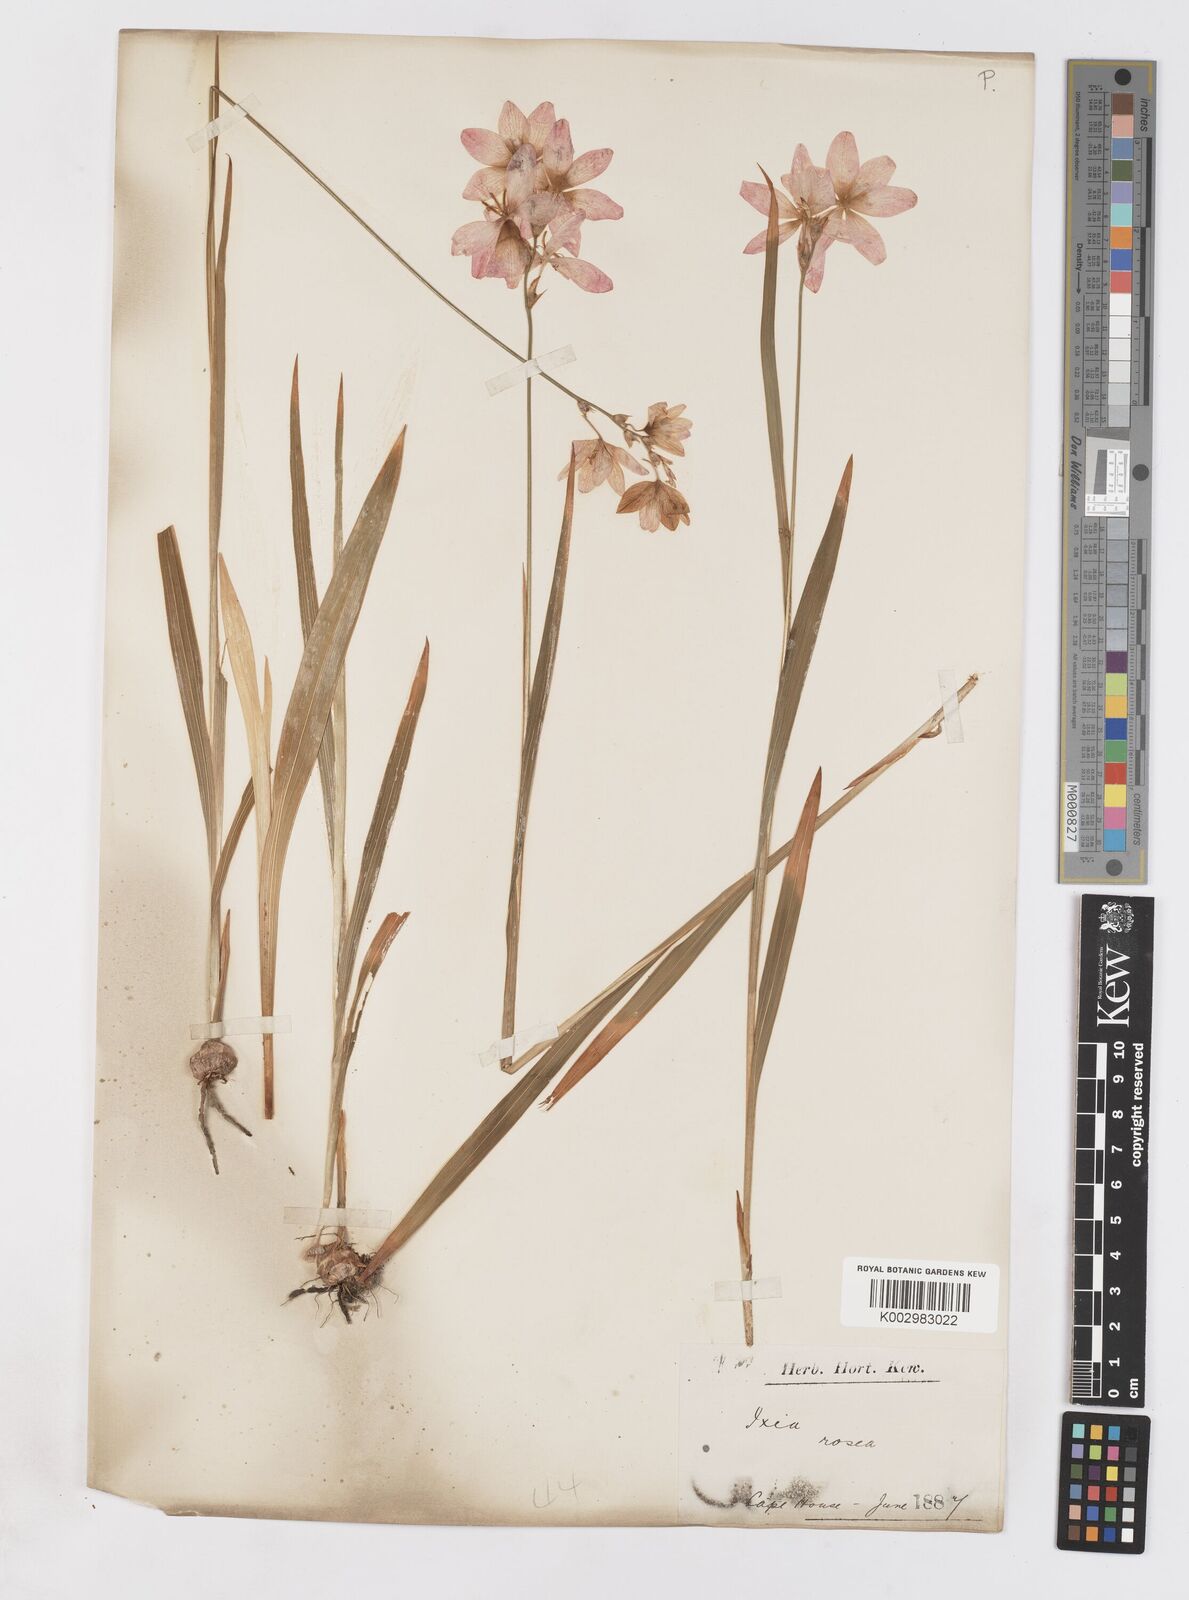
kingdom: Plantae
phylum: Tracheophyta
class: Liliopsida
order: Asparagales
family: Iridaceae
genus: Romulea
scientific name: Romulea rosea
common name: Oniongrass
